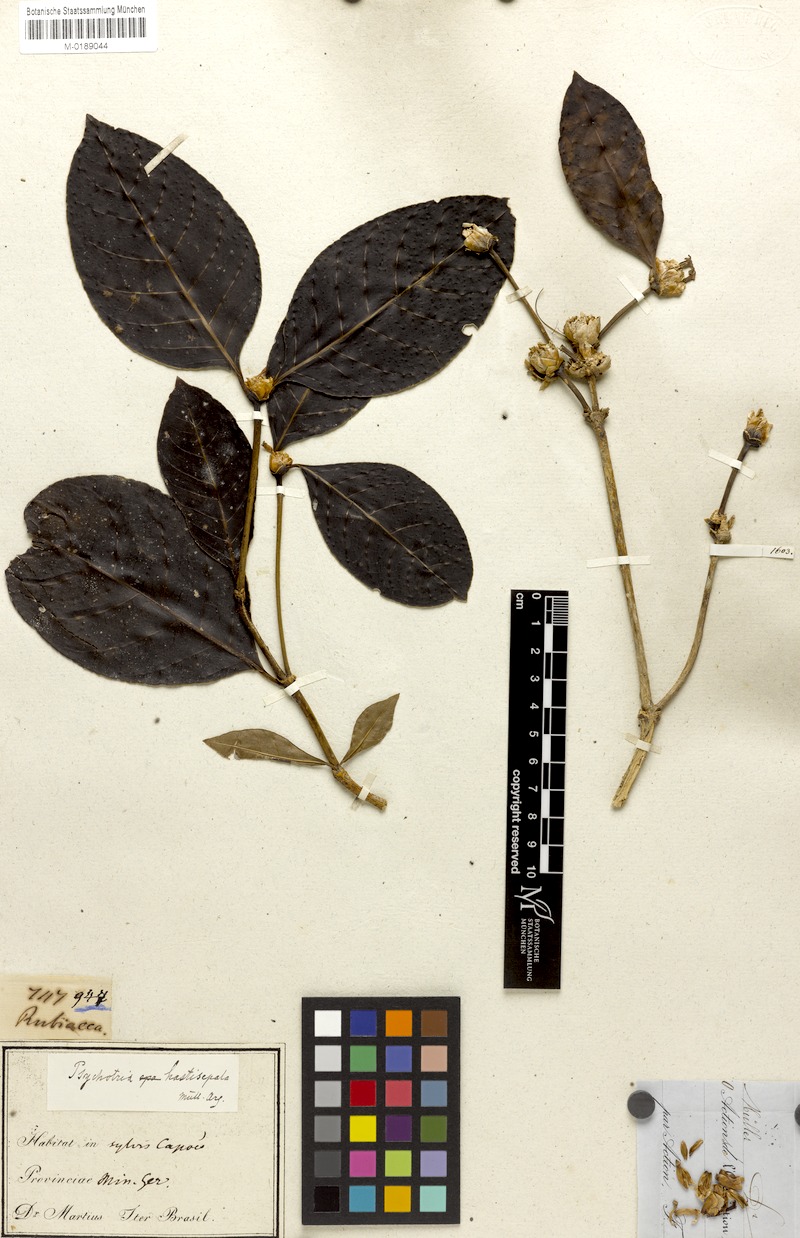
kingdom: Plantae
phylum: Tracheophyta
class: Magnoliopsida
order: Gentianales
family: Rubiaceae
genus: Psychotria
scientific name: Psychotria hastisepala
